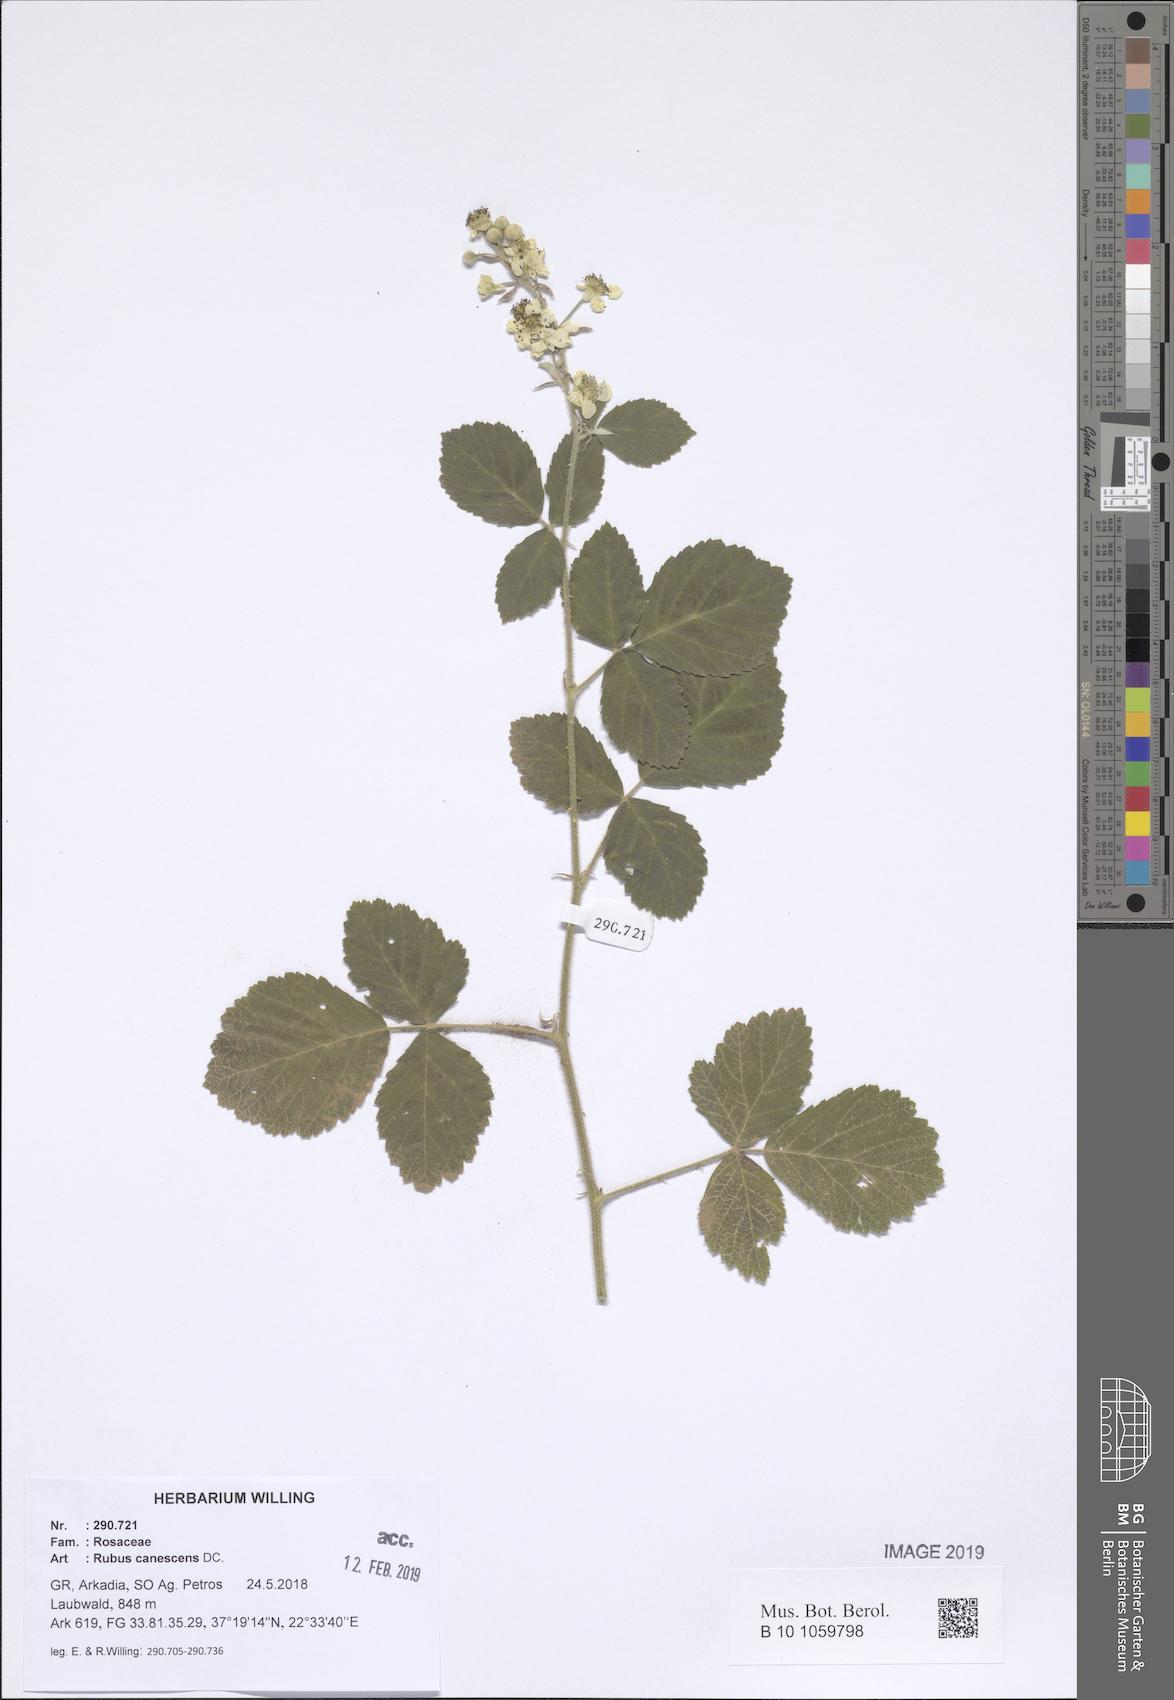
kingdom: Plantae
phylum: Tracheophyta
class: Magnoliopsida
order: Rosales
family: Rosaceae
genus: Rubus
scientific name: Rubus canescens
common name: Wooly blackberry
